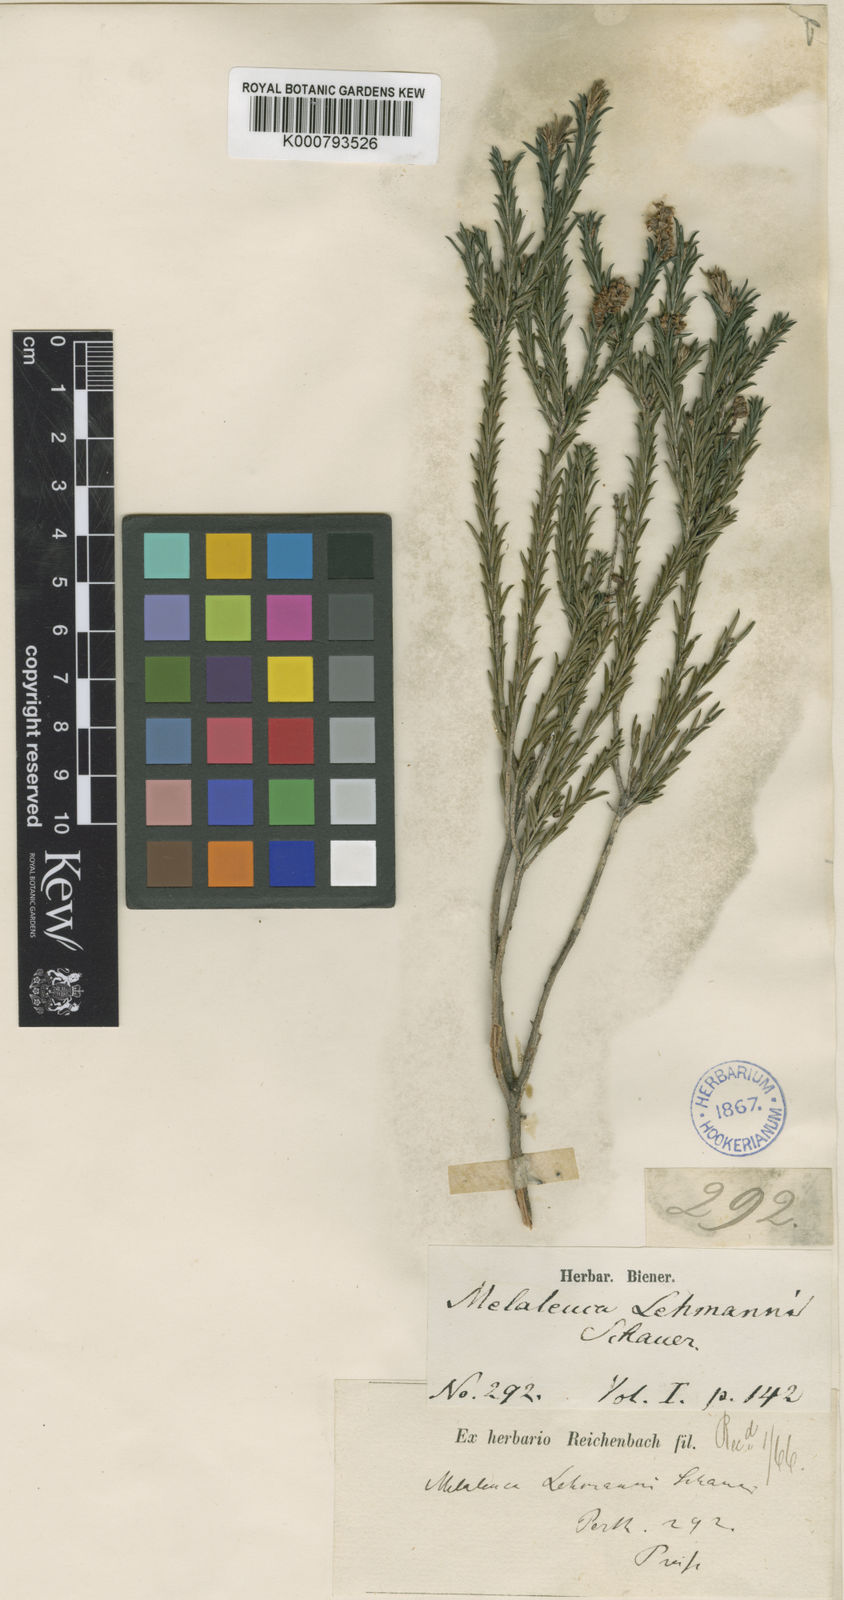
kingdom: Plantae
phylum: Tracheophyta
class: Magnoliopsida
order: Myrtales
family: Myrtaceae
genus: Melaleuca
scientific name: Melaleuca viminea
